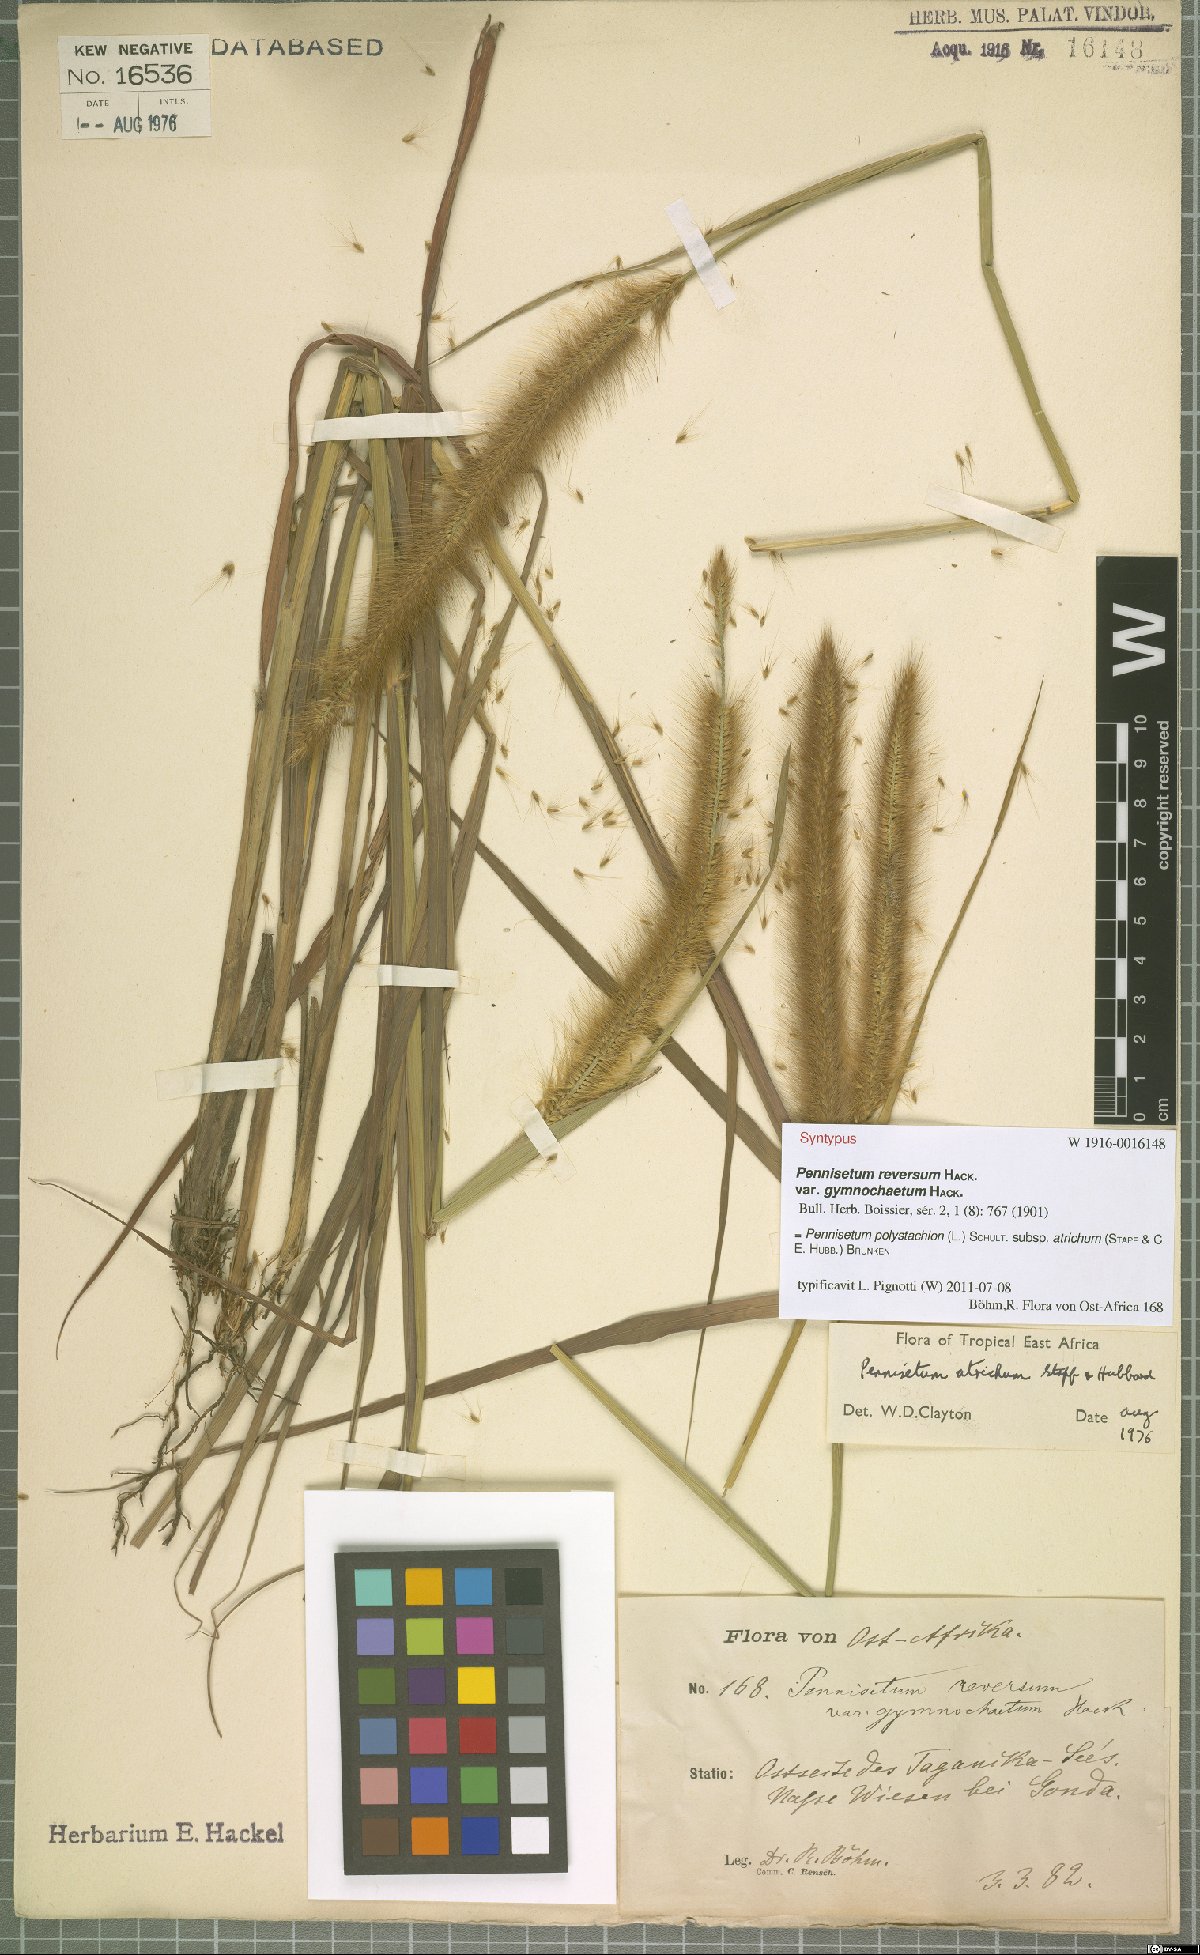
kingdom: Plantae
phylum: Tracheophyta
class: Liliopsida
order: Poales
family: Poaceae
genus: Cenchrus
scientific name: Cenchrus setosus
